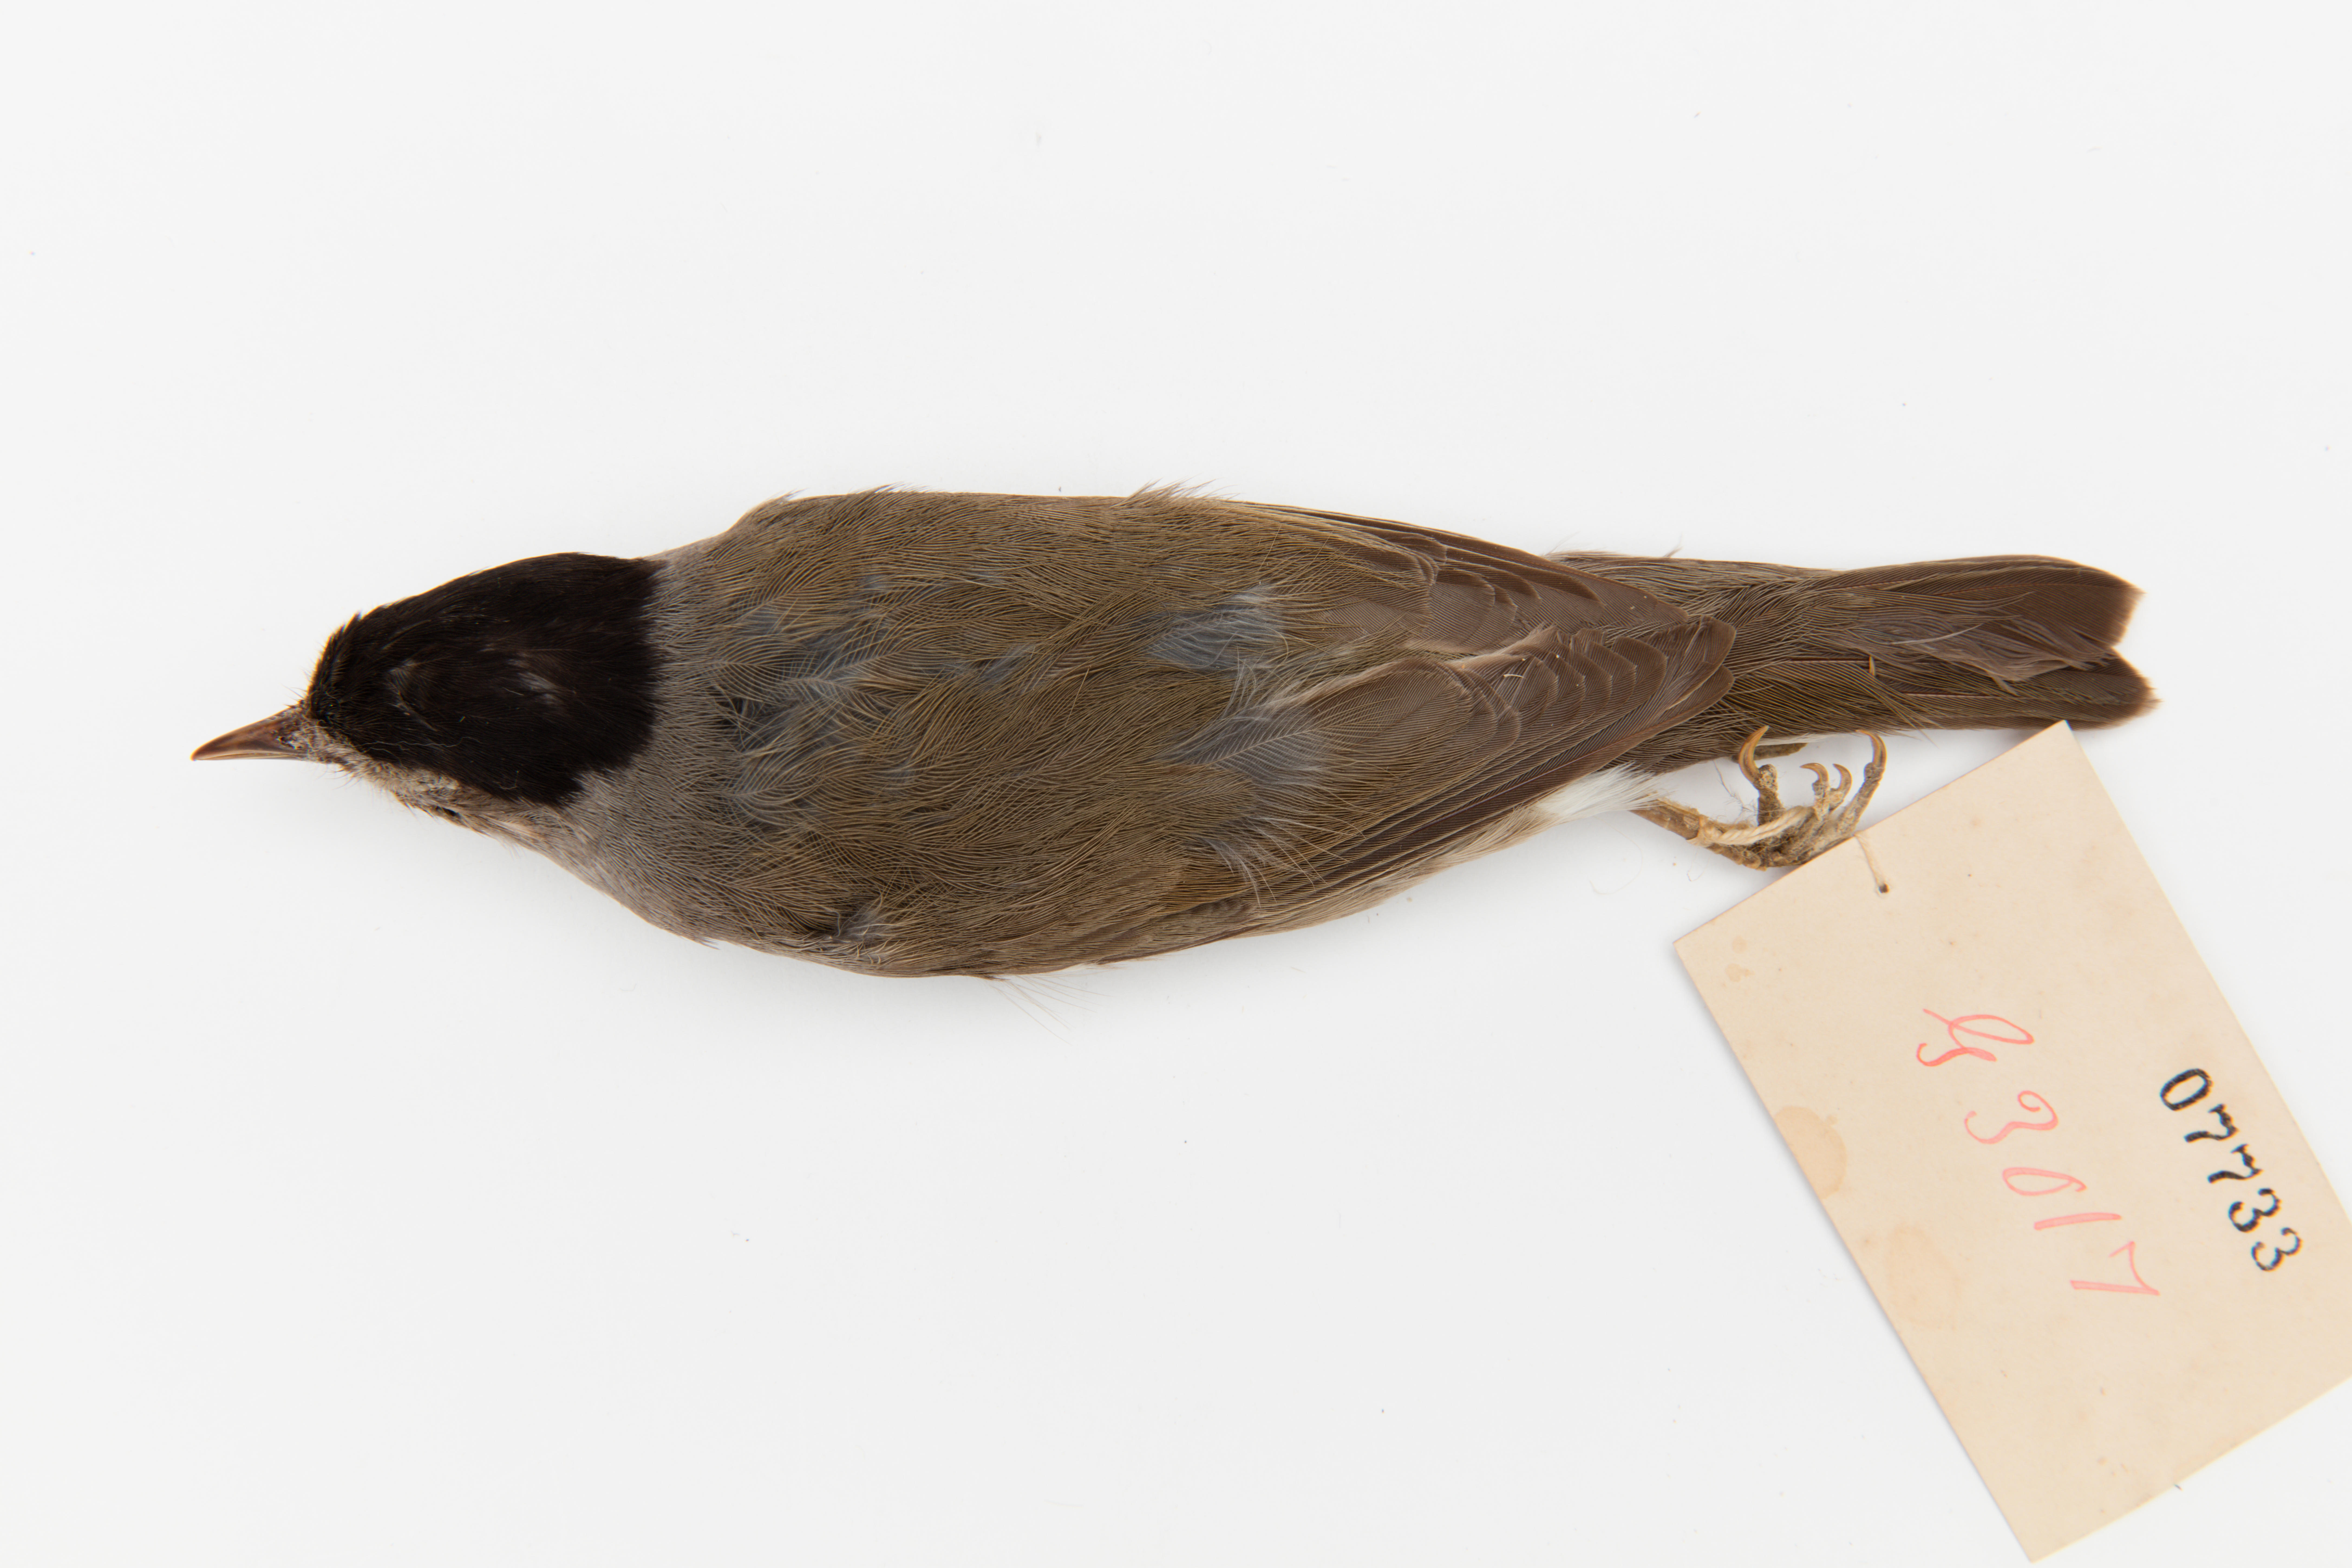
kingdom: Animalia
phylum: Chordata
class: Aves
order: Passeriformes
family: Sylviidae
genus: Sylvia
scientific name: Sylvia atricapilla
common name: Eurasian blackcap
